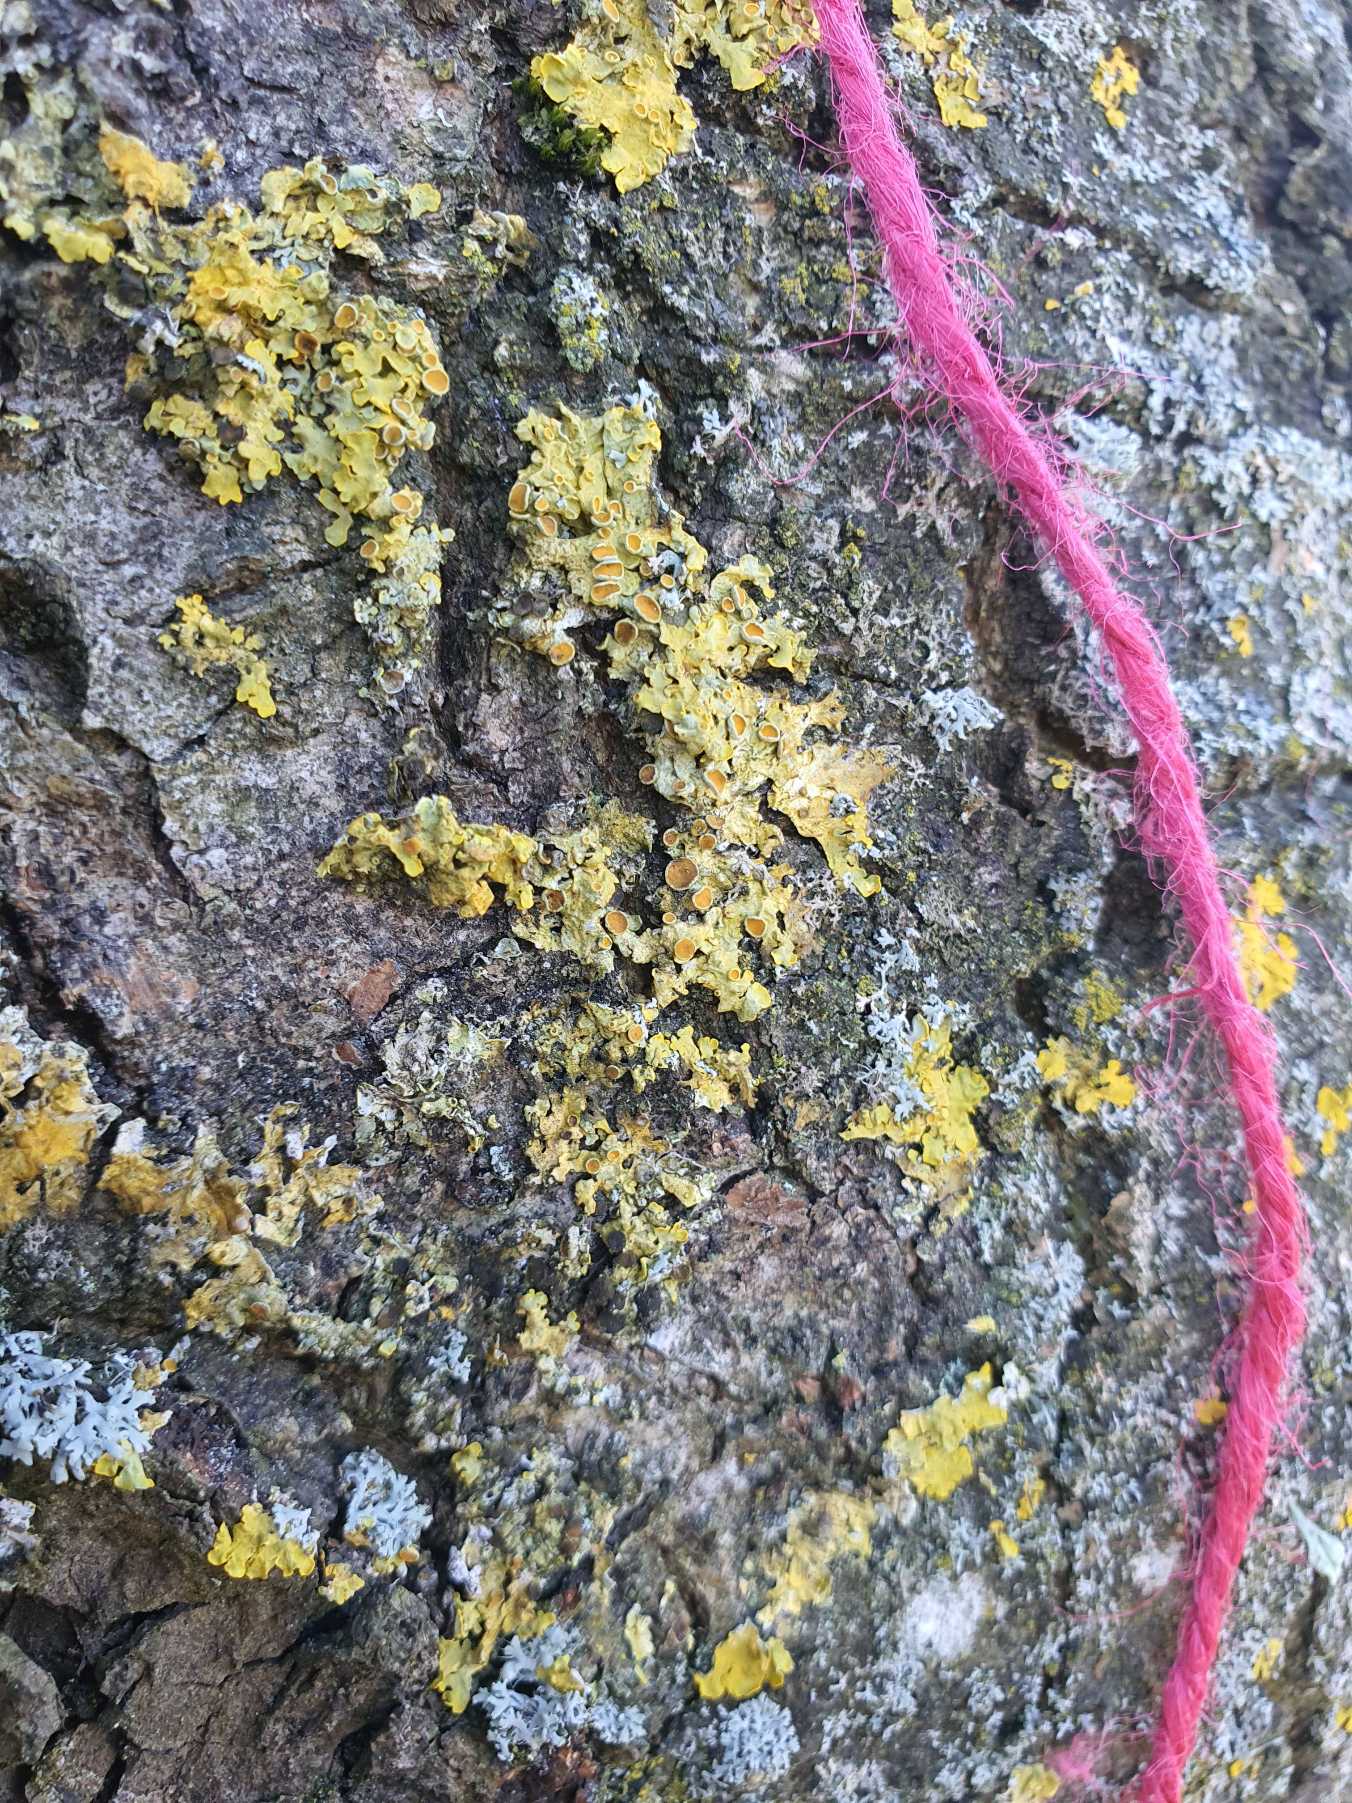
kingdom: Fungi
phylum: Ascomycota
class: Lecanoromycetes
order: Teloschistales
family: Teloschistaceae
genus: Xanthoria
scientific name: Xanthoria parietina
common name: Almindelig væggelav
